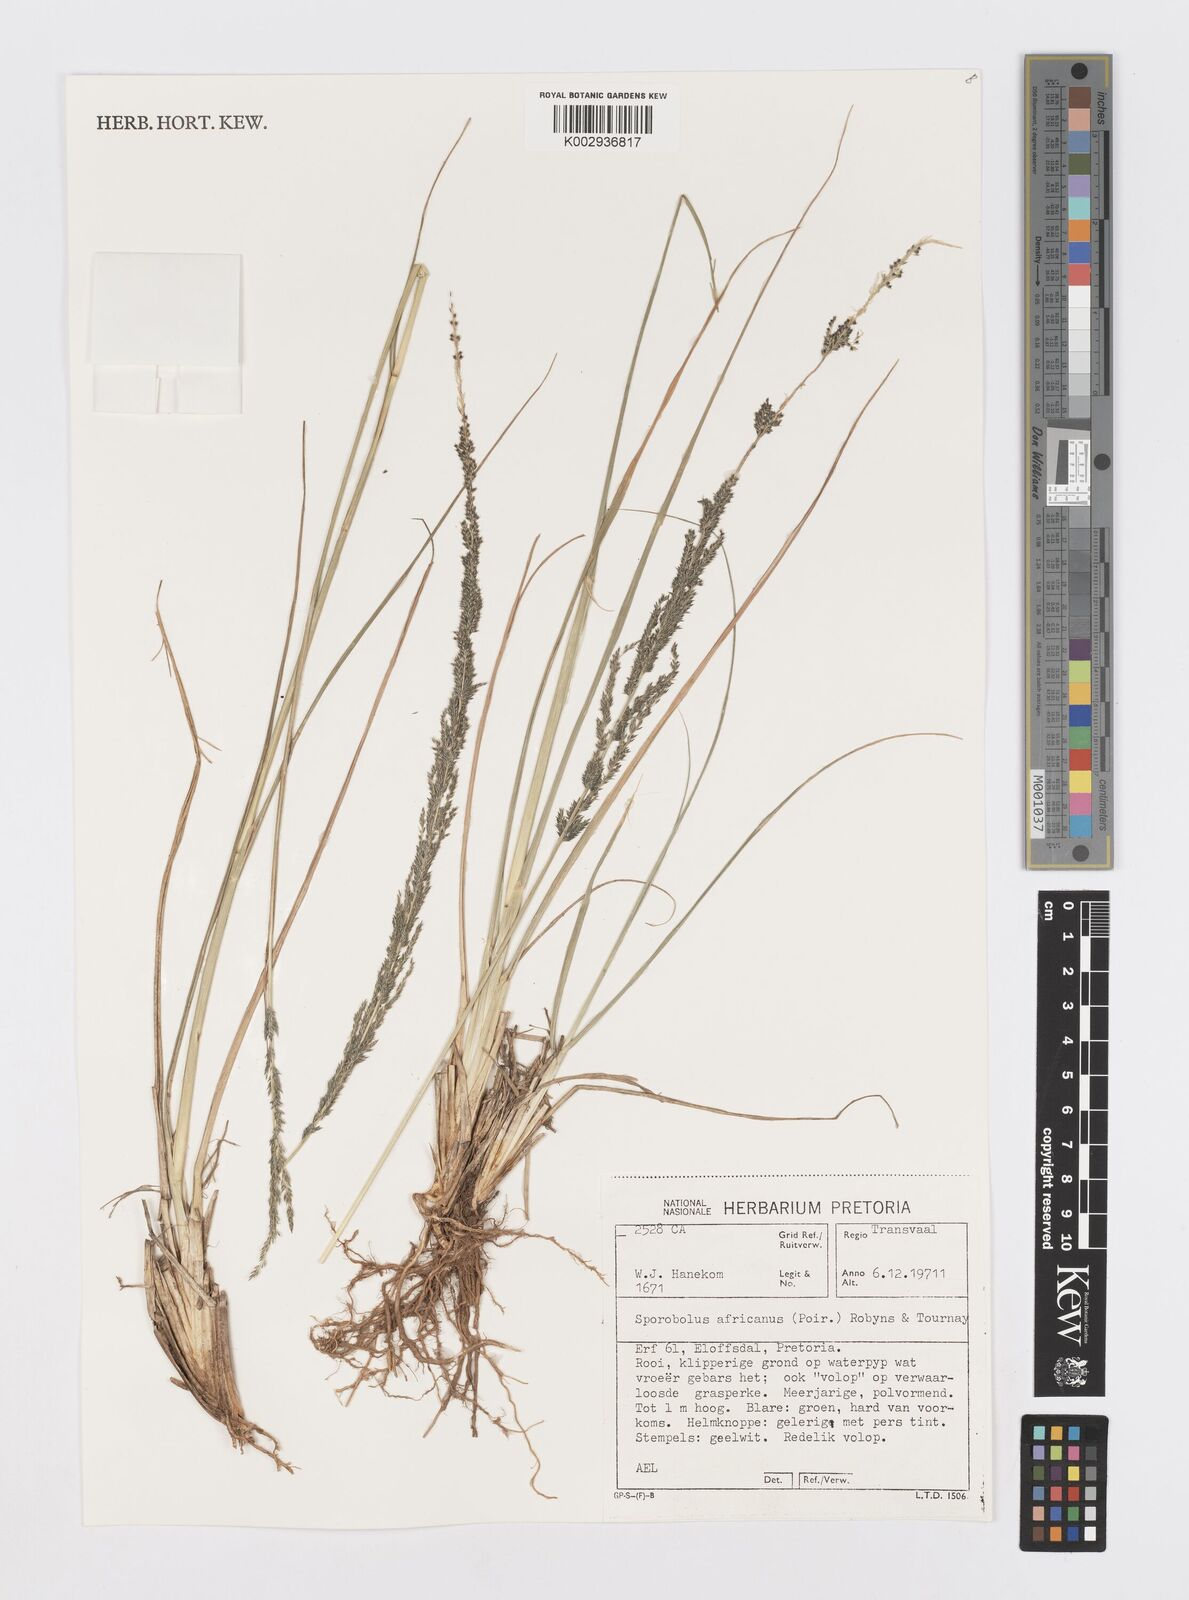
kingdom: Plantae
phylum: Tracheophyta
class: Liliopsida
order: Poales
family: Poaceae
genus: Sporobolus
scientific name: Sporobolus africanus
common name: African dropseed
